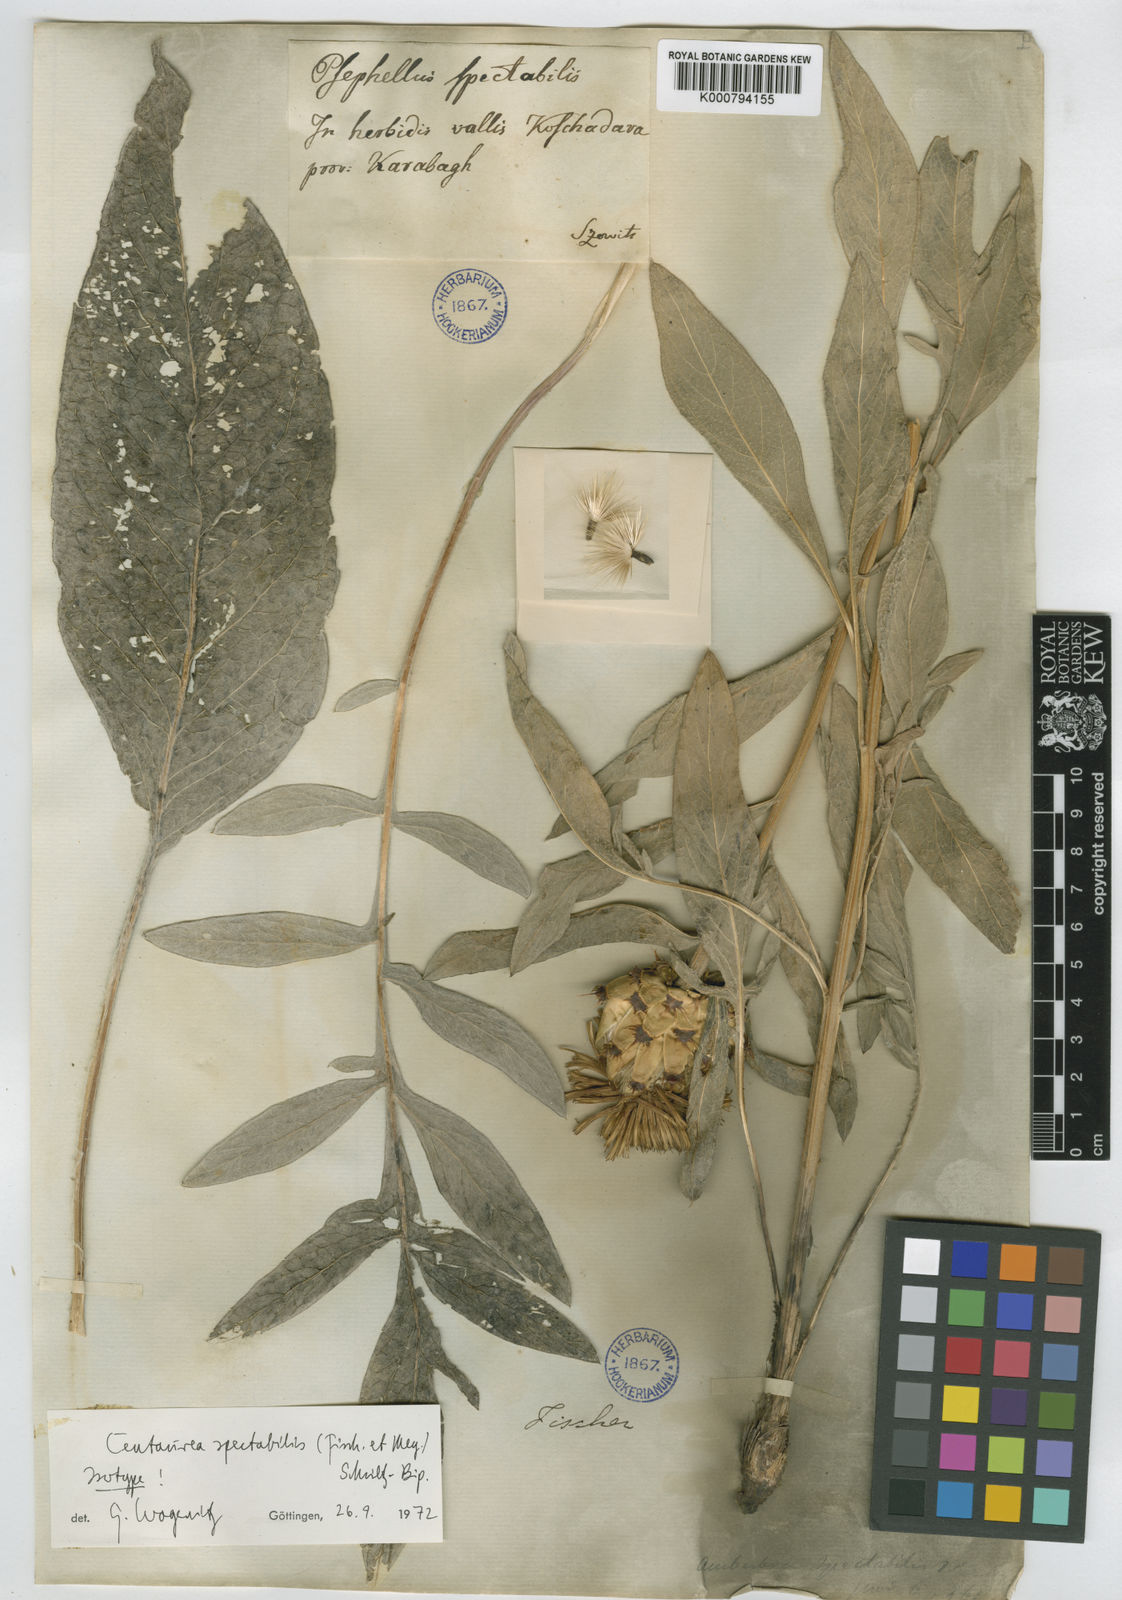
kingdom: Plantae
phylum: Tracheophyta
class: Magnoliopsida
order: Asterales
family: Asteraceae
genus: Centaurea
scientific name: Centaurea spectabilis
